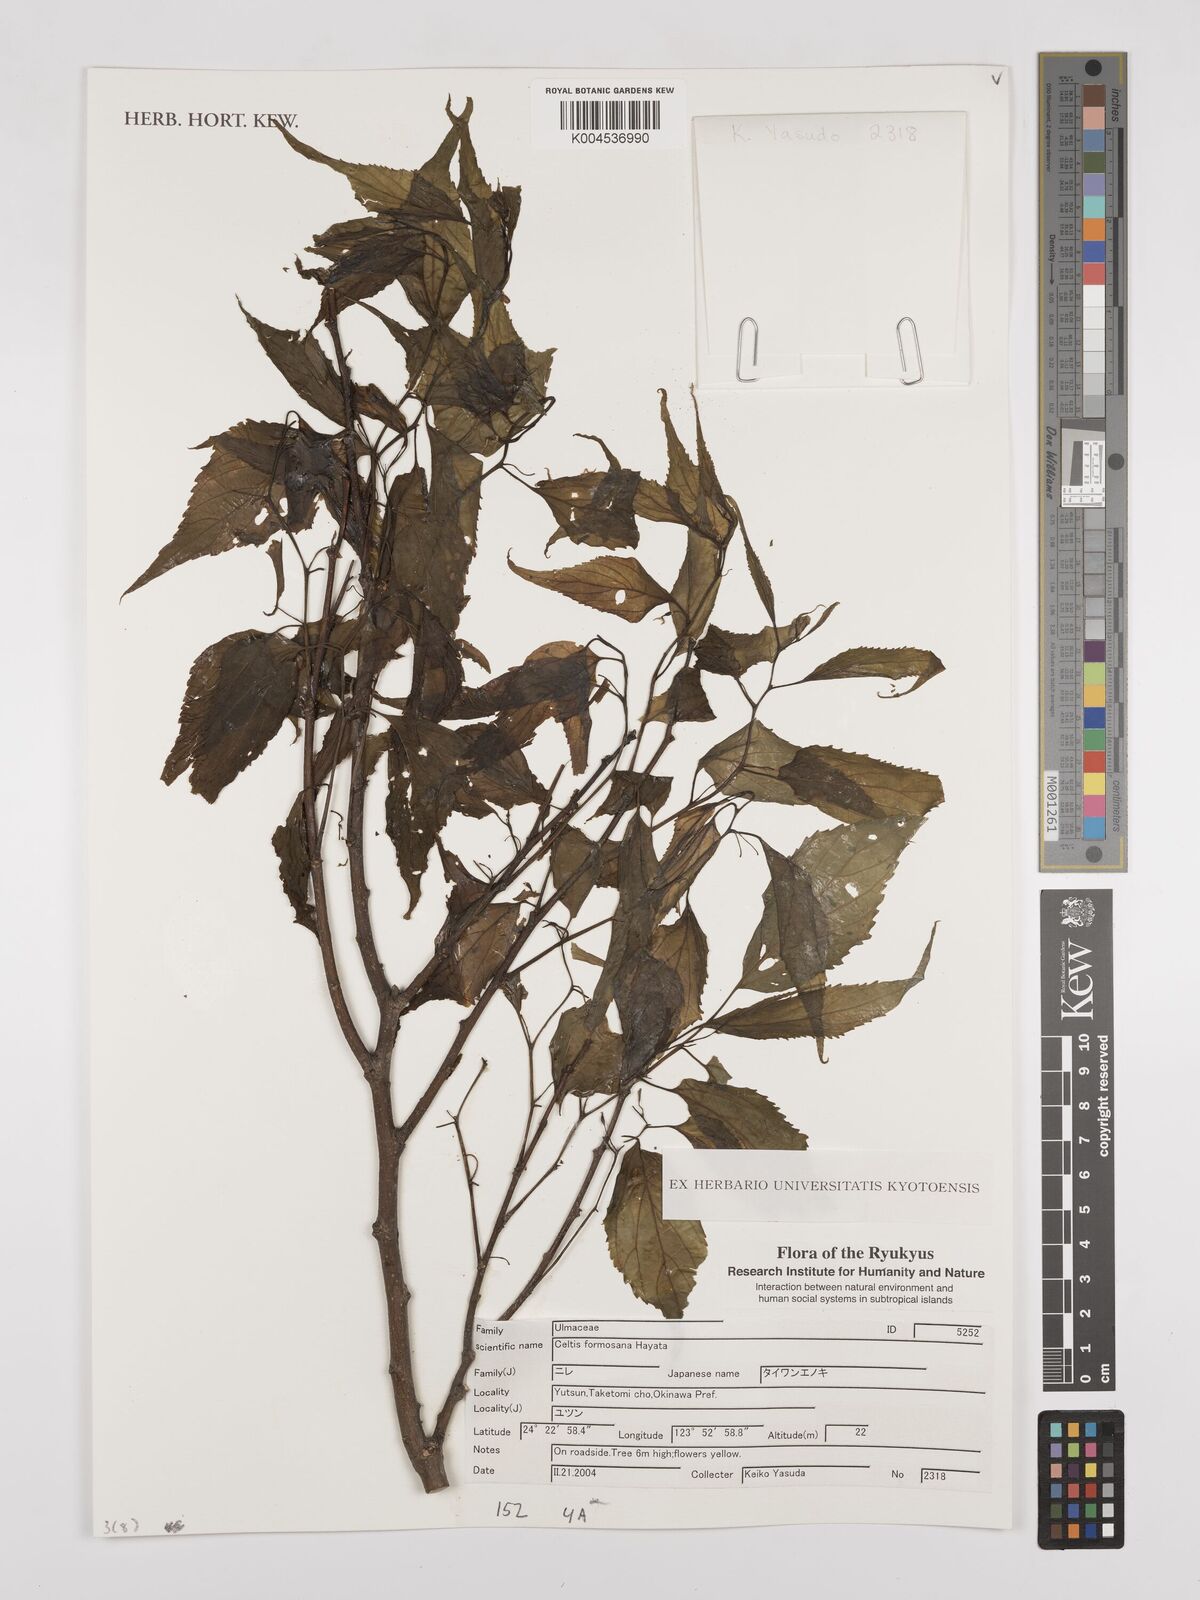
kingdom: Plantae
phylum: Tracheophyta
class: Magnoliopsida
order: Rosales
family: Cannabaceae
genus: Celtis
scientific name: Celtis tetrandra
